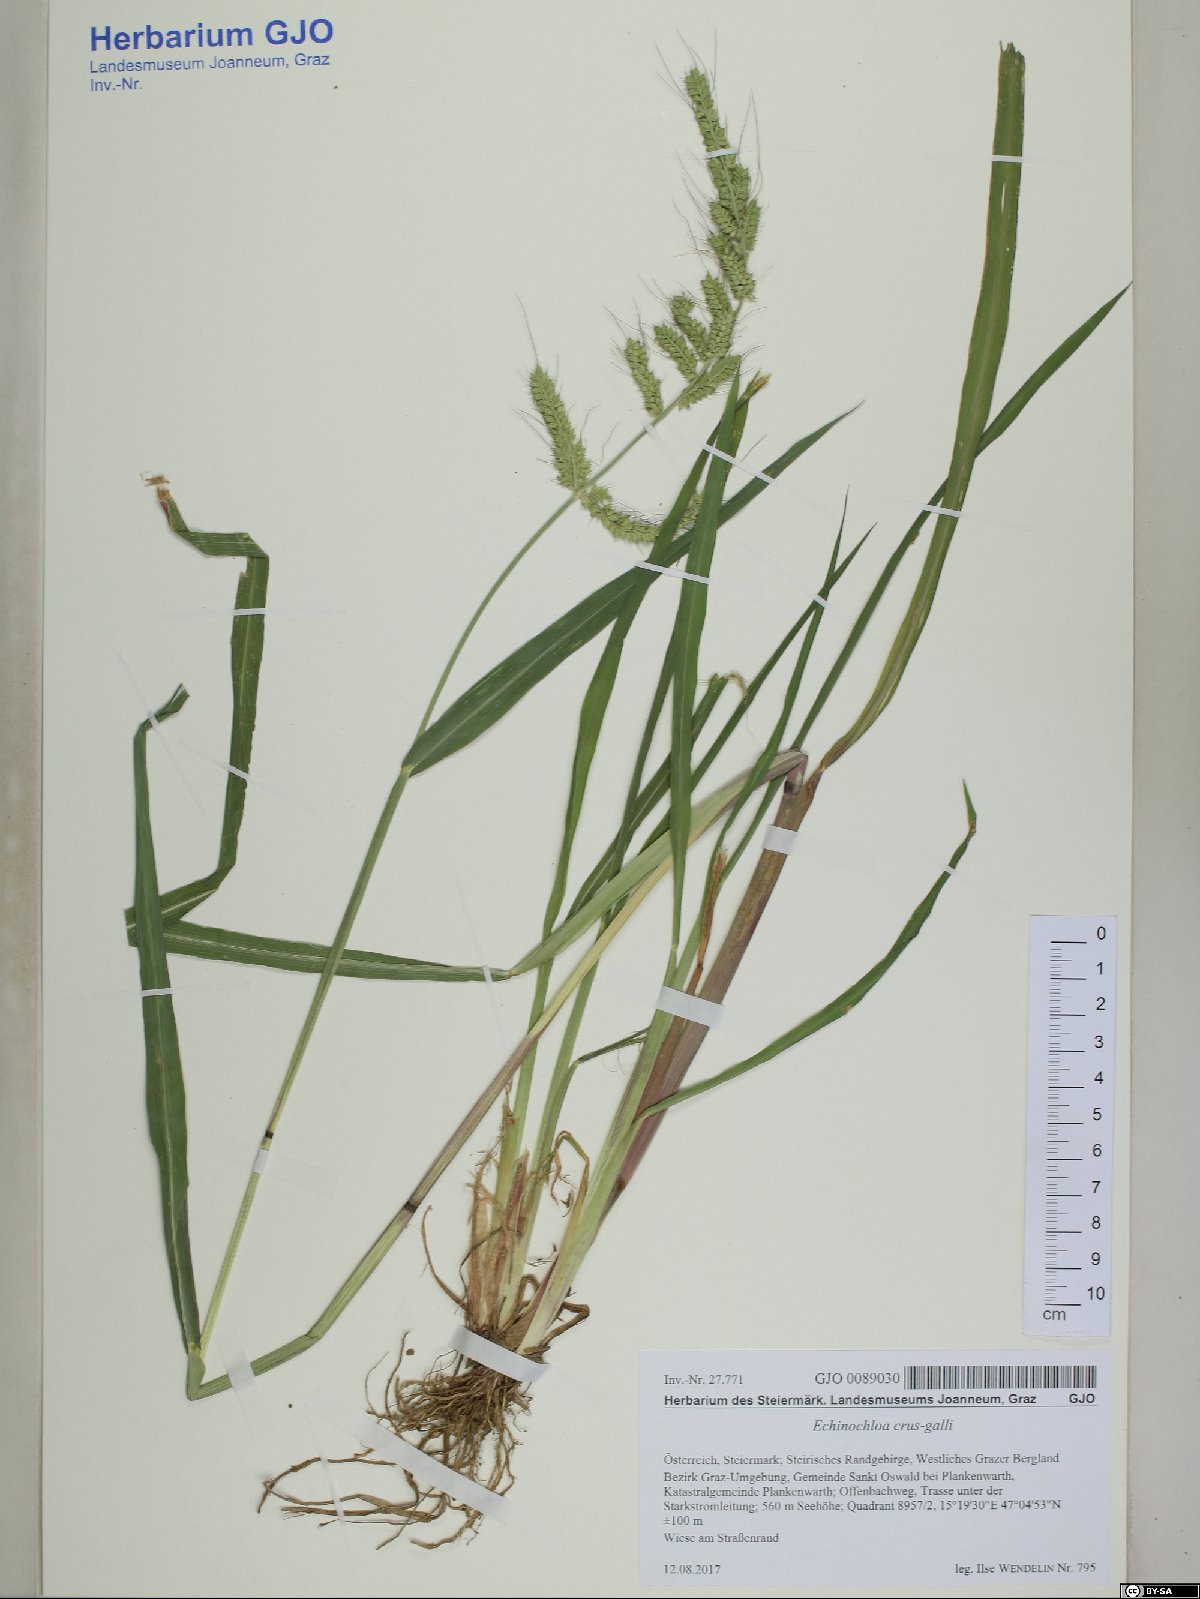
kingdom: Plantae
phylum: Tracheophyta
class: Liliopsida
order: Poales
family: Poaceae
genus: Echinochloa
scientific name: Echinochloa crus-galli
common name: Cockspur
